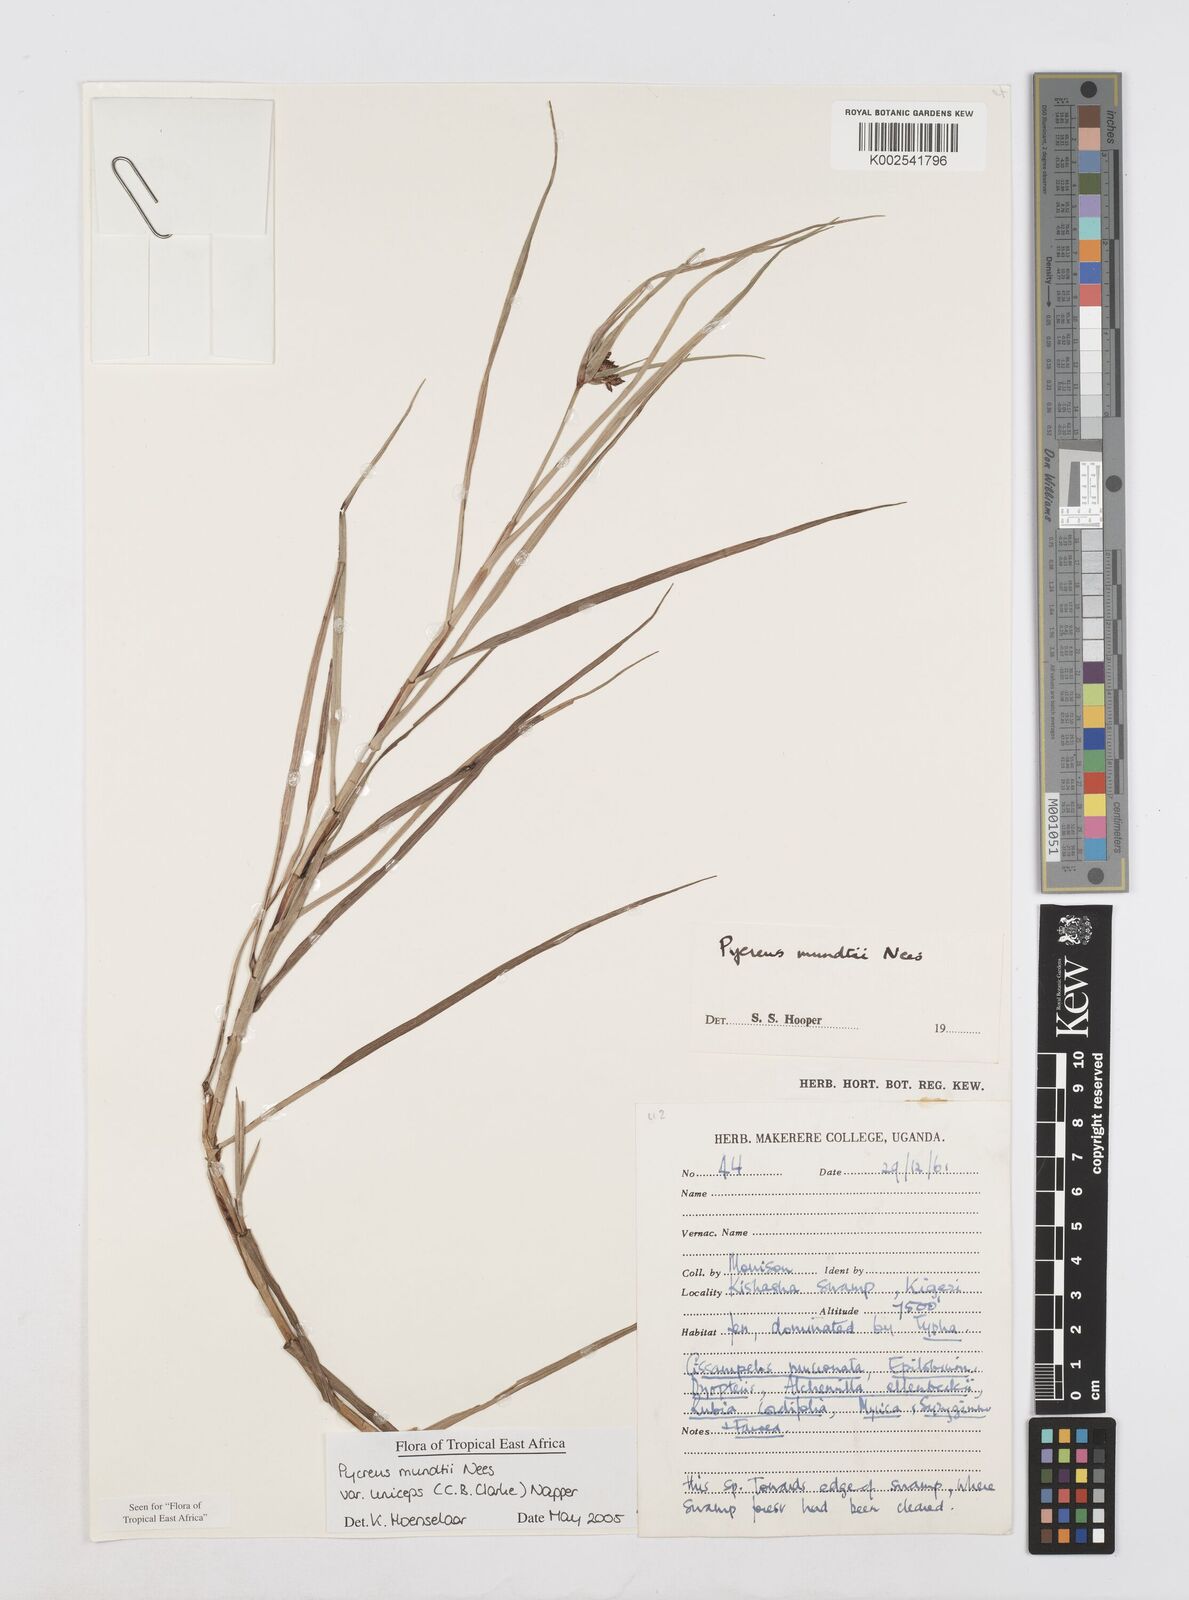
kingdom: Plantae
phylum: Tracheophyta
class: Liliopsida
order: Poales
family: Cyperaceae
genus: Cyperus
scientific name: Cyperus mundii
